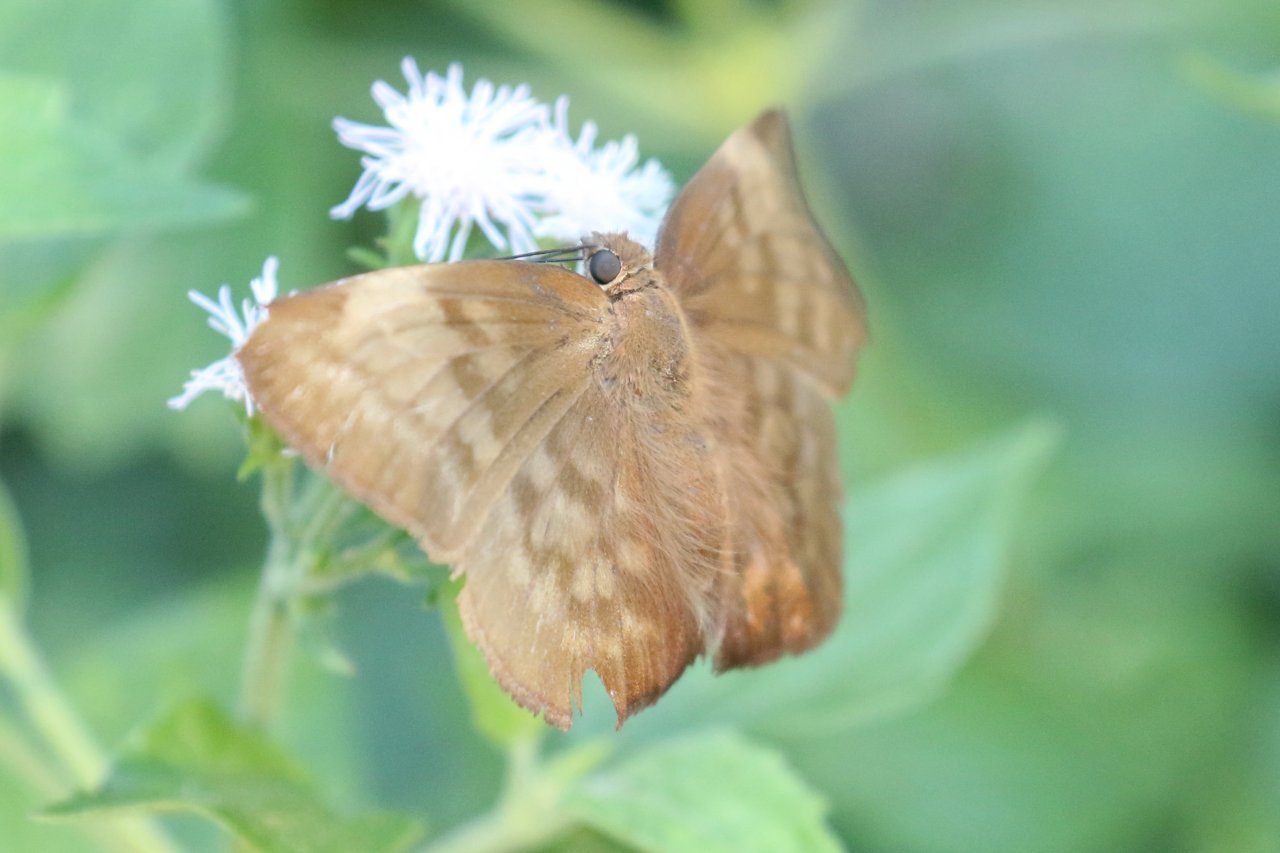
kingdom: Animalia
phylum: Arthropoda
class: Insecta
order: Lepidoptera
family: Hesperiidae
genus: Achlyodes
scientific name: Achlyodes pallida
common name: Pale Sicklewing
